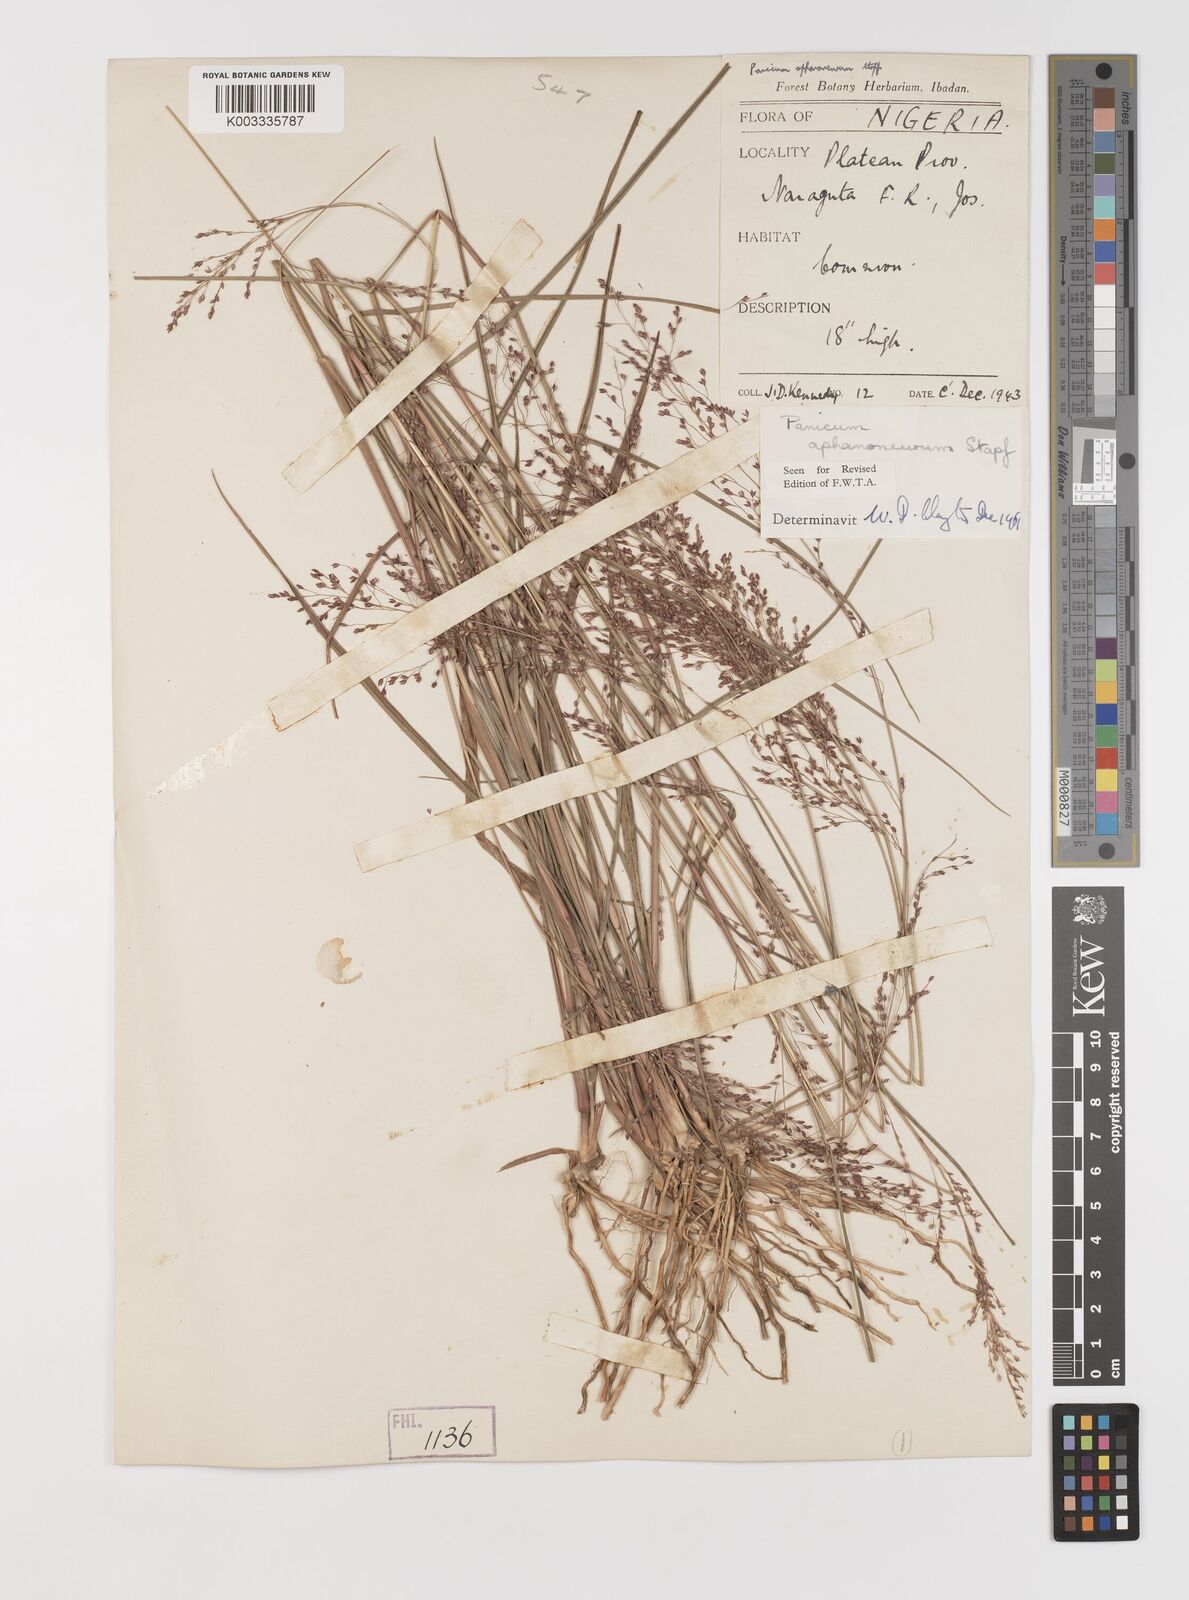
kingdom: Plantae
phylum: Tracheophyta
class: Liliopsida
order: Poales
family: Poaceae
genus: Panicum
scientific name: Panicum fluviicola
